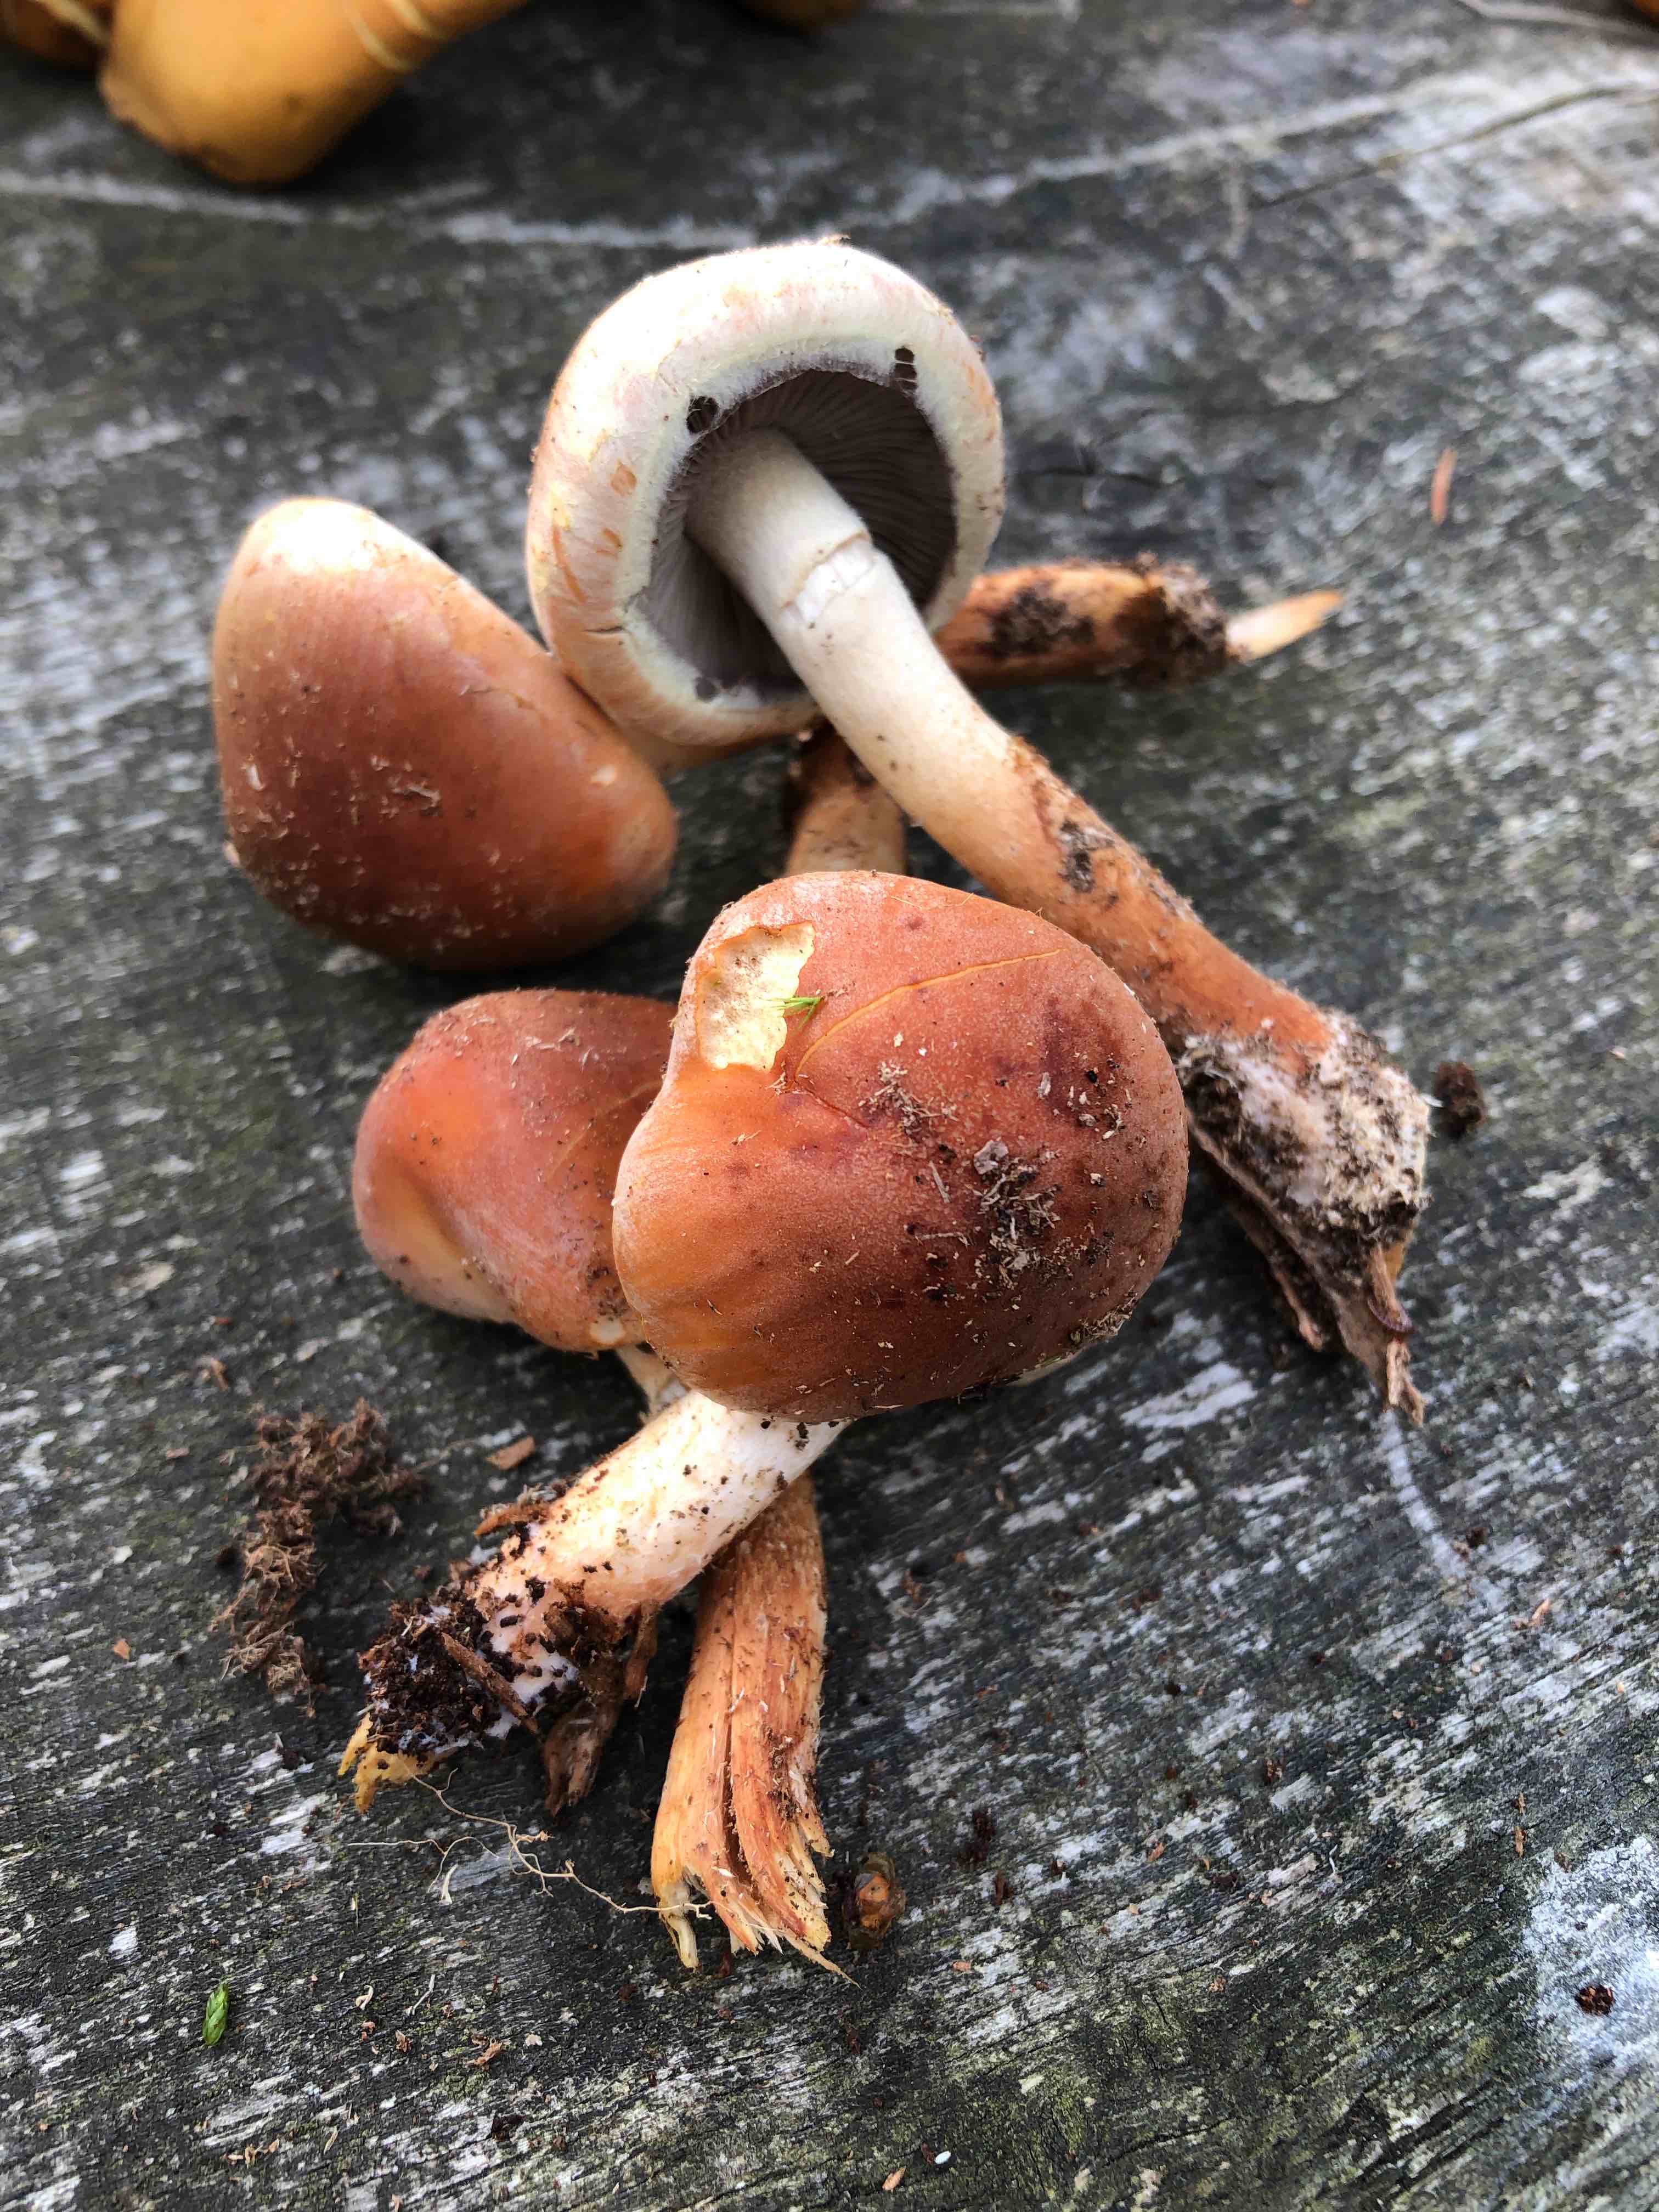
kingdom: Fungi
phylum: Basidiomycota
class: Agaricomycetes
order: Agaricales
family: Strophariaceae
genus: Hypholoma
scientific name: Hypholoma lateritium
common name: teglrød svovlhat
